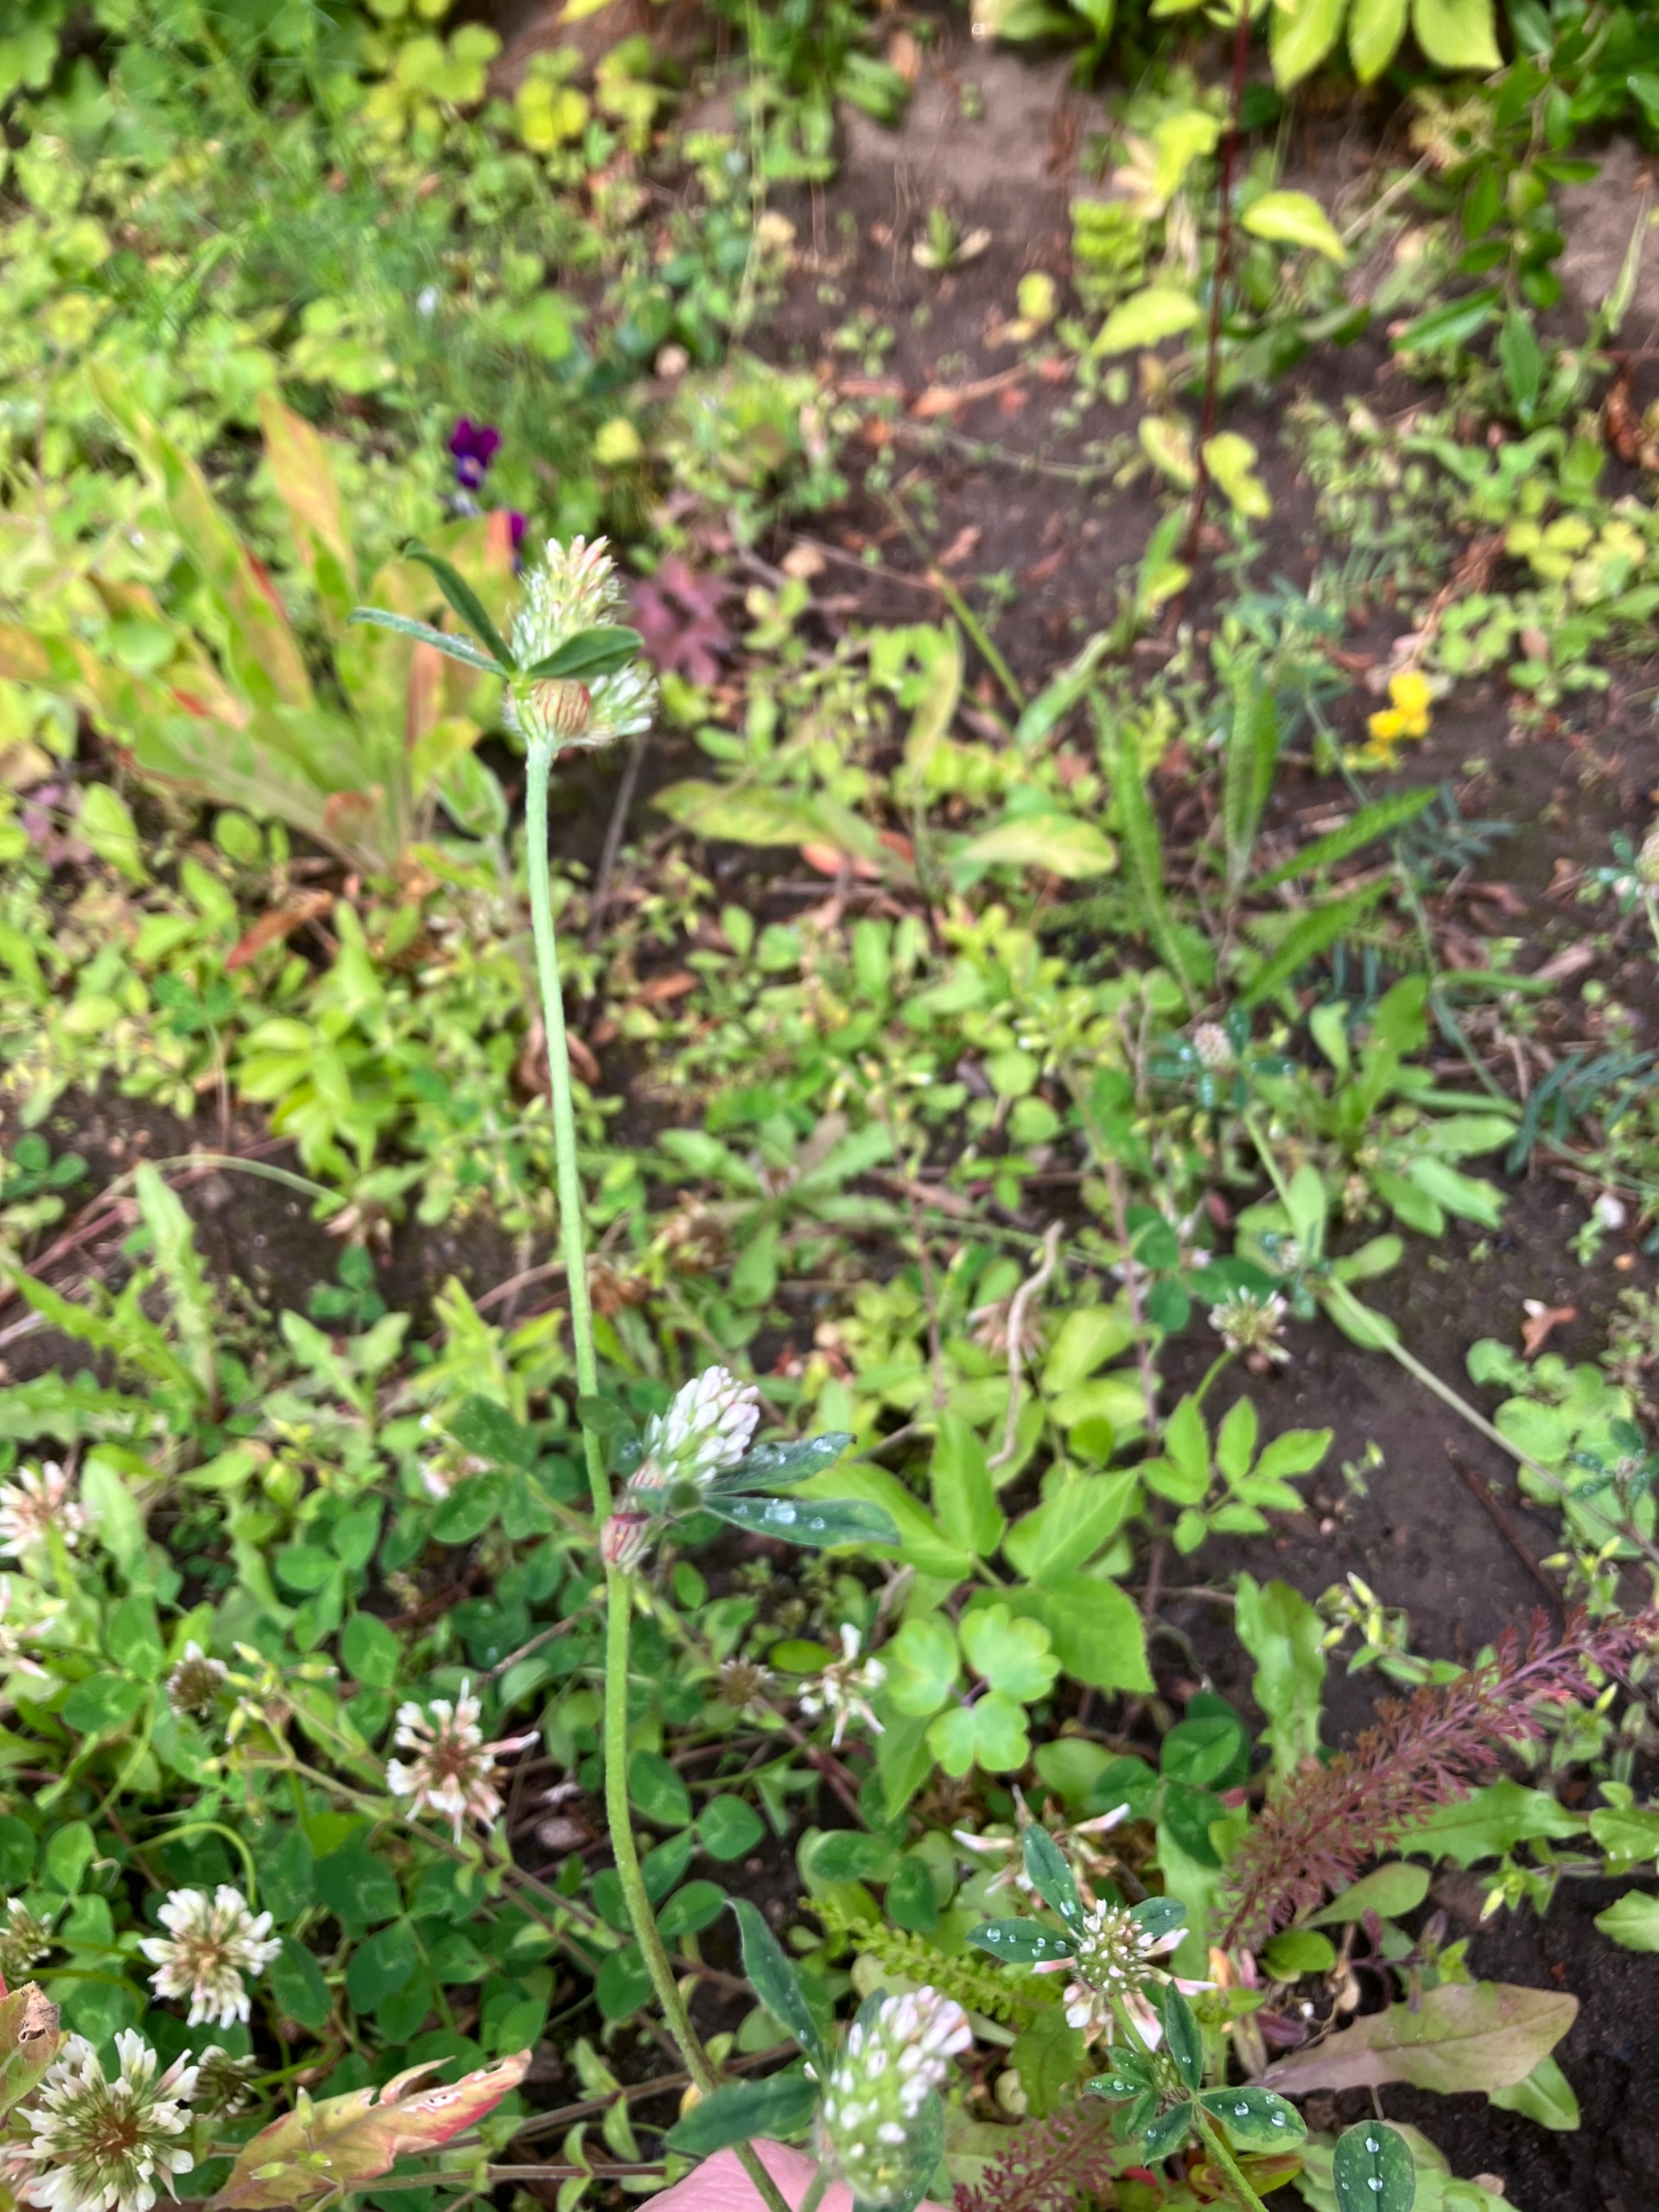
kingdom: Plantae
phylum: Tracheophyta
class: Magnoliopsida
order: Fabales
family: Fabaceae
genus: Trifolium
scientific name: Trifolium striatum
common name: Stribet kløver
